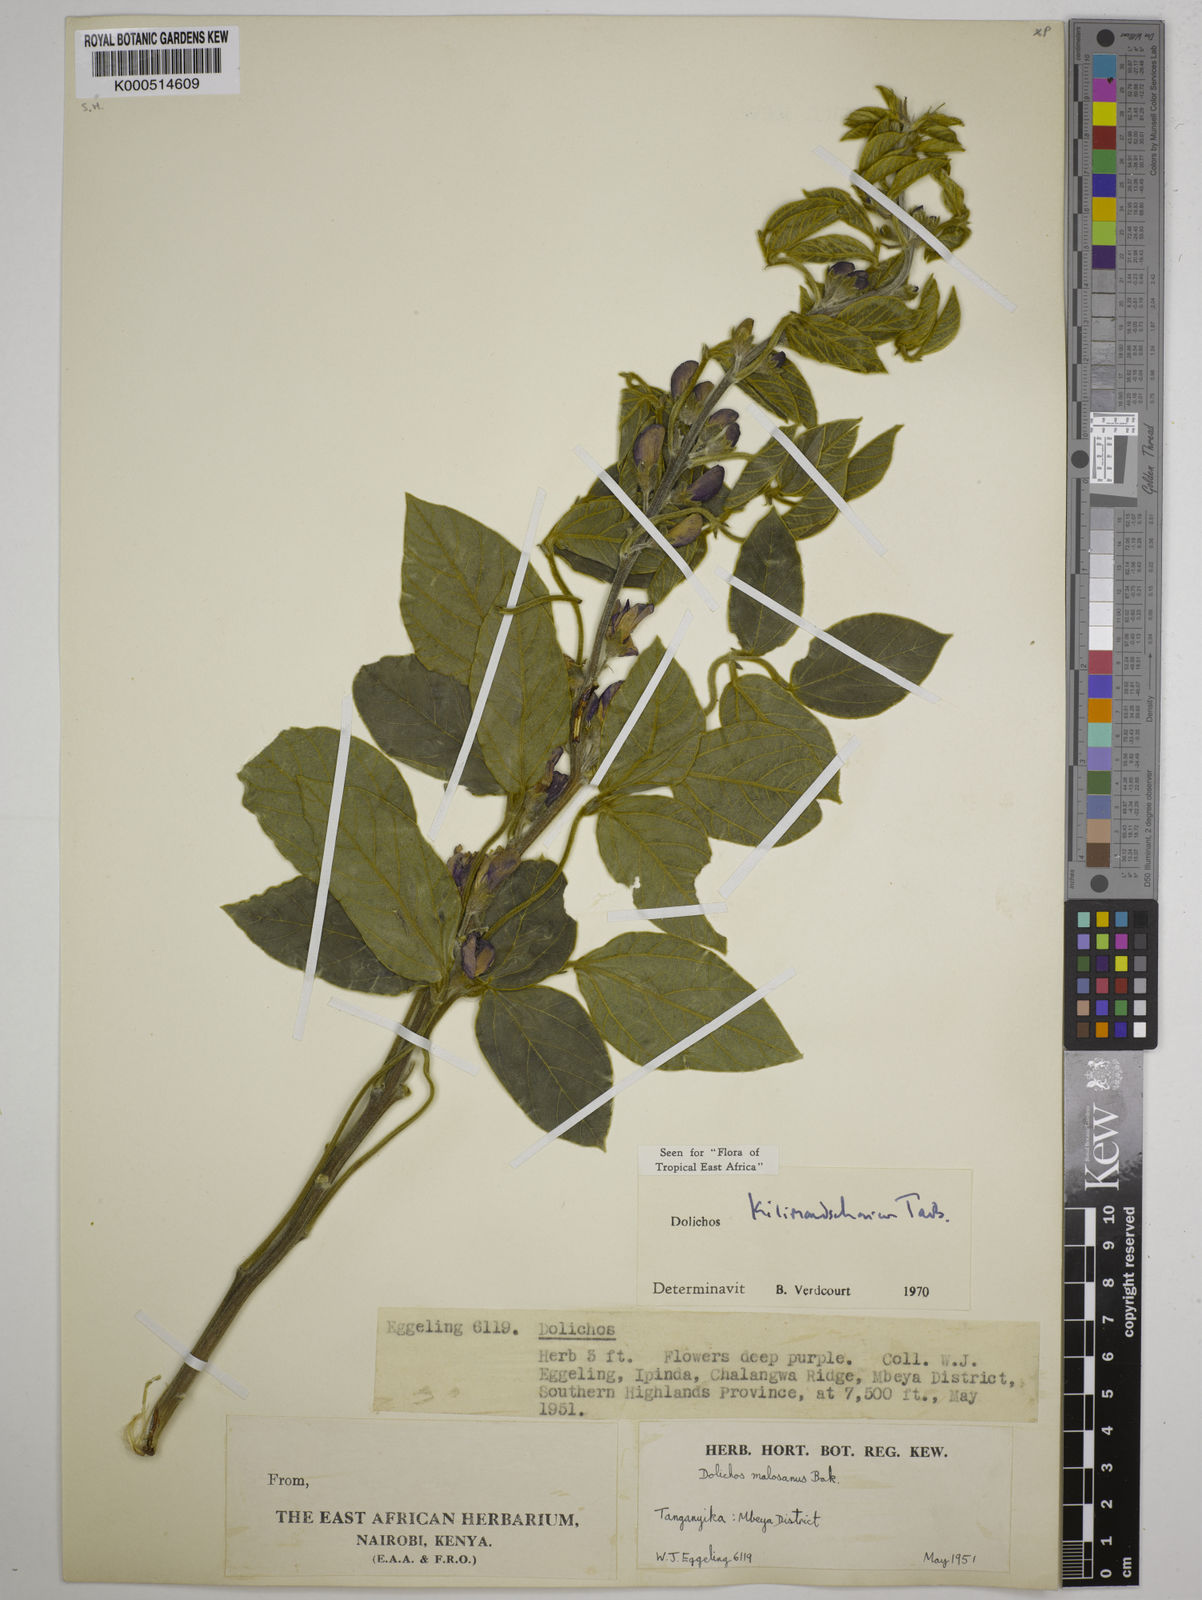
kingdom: Plantae
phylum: Tracheophyta
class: Magnoliopsida
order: Fabales
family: Fabaceae
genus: Dolichos
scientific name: Dolichos kilimandscharicus
